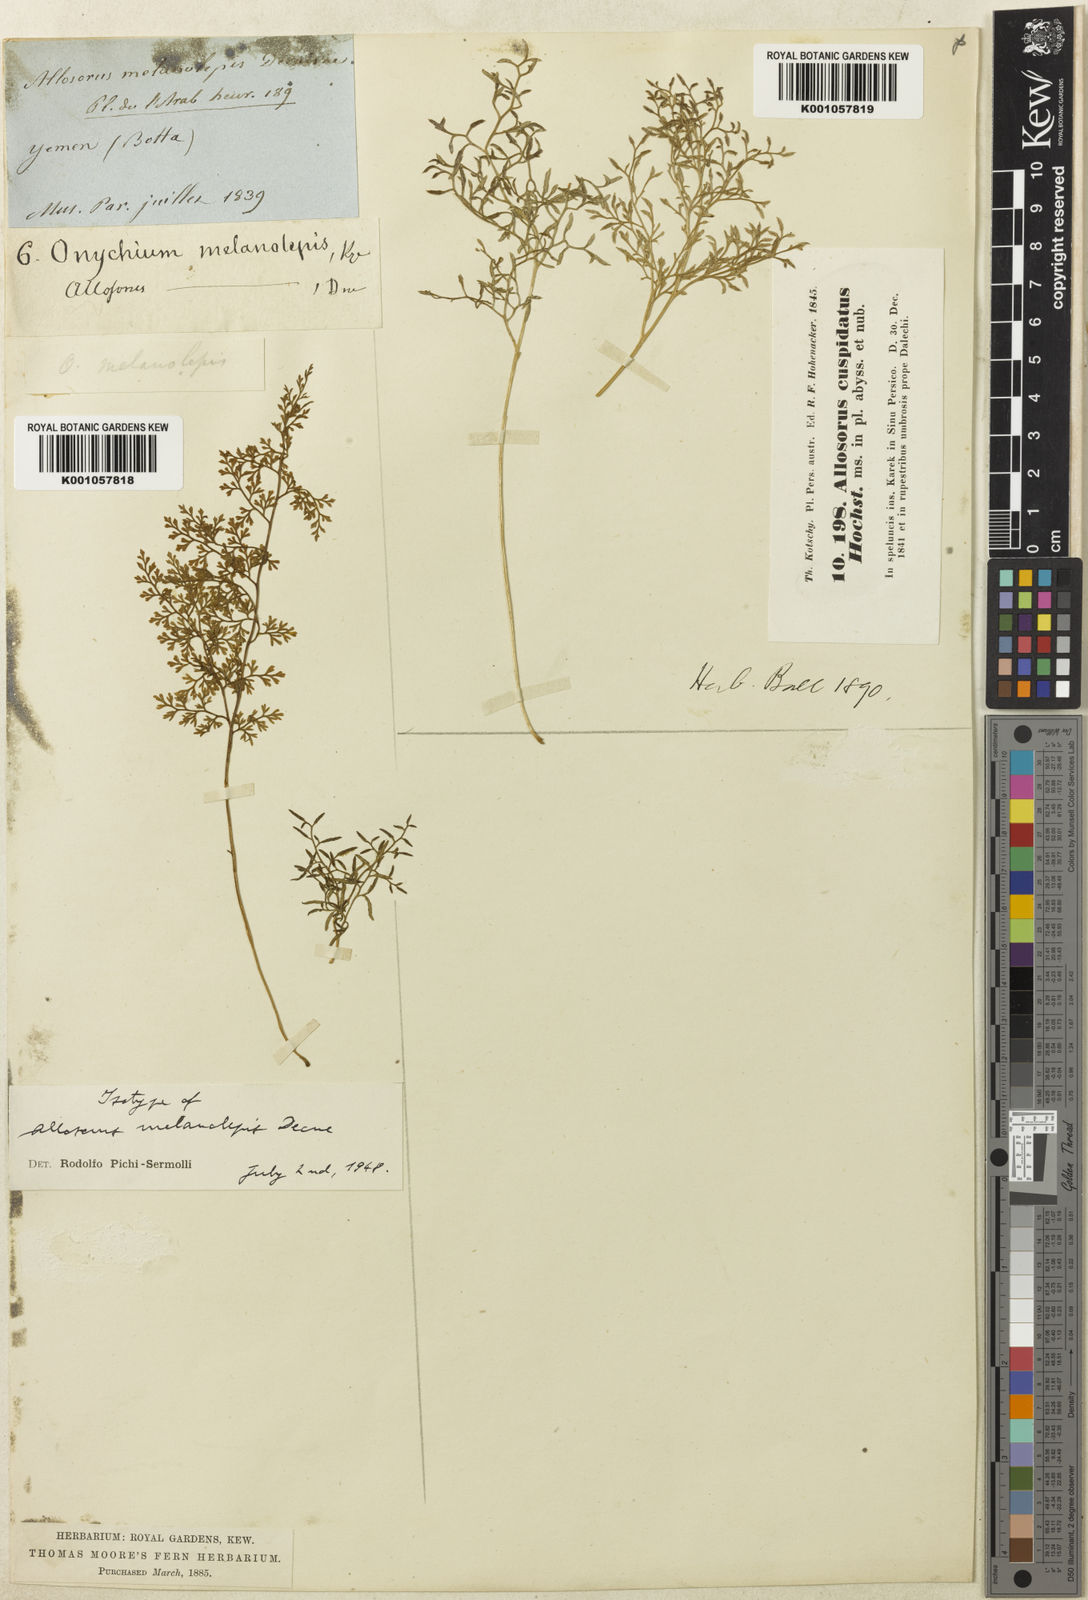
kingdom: Plantae
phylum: Tracheophyta
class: Polypodiopsida
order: Polypodiales
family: Pteridaceae
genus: Onychium
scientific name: Onychium divaricatum
